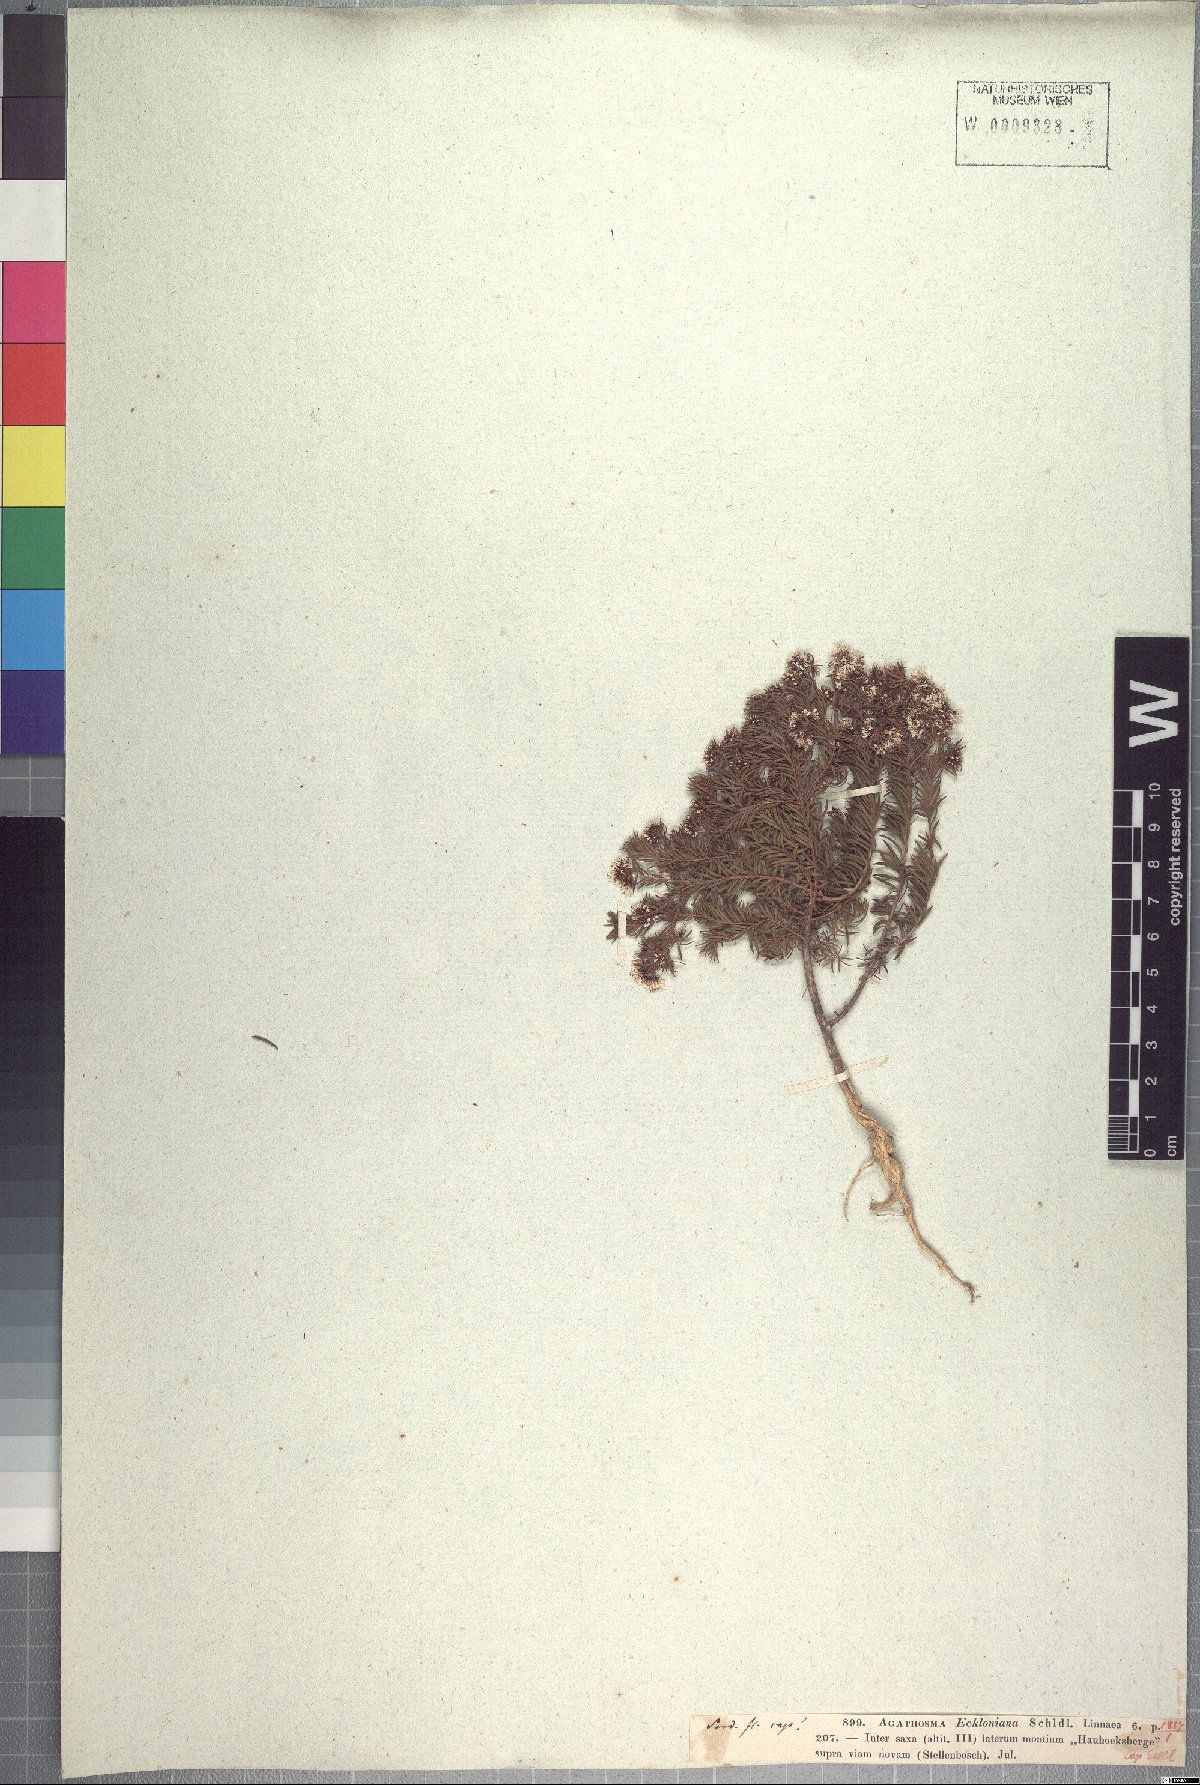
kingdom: Plantae
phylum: Tracheophyta
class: Magnoliopsida
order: Sapindales
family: Rutaceae
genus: Agathosma
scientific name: Agathosma serpyllacea
